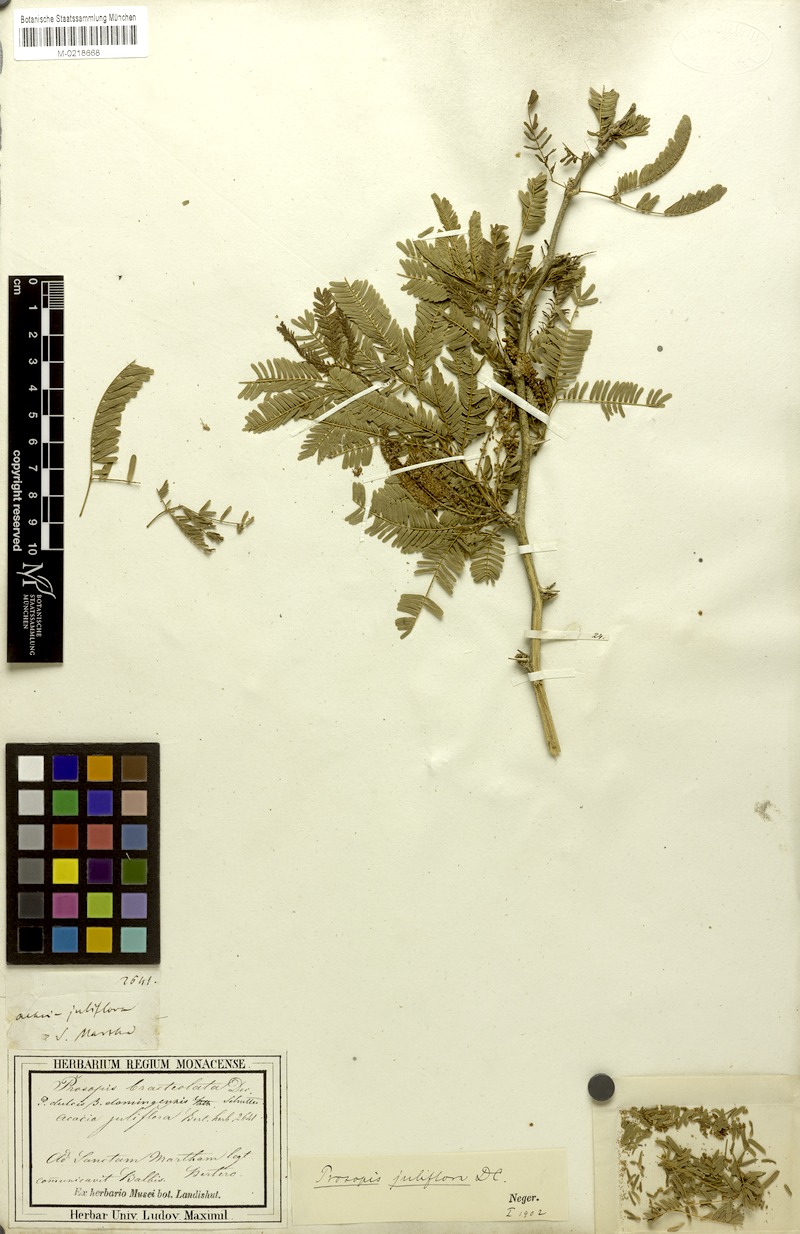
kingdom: Plantae
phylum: Tracheophyta
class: Magnoliopsida
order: Fabales
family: Fabaceae
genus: Prosopis
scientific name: Prosopis juliflora
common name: Mesquite
